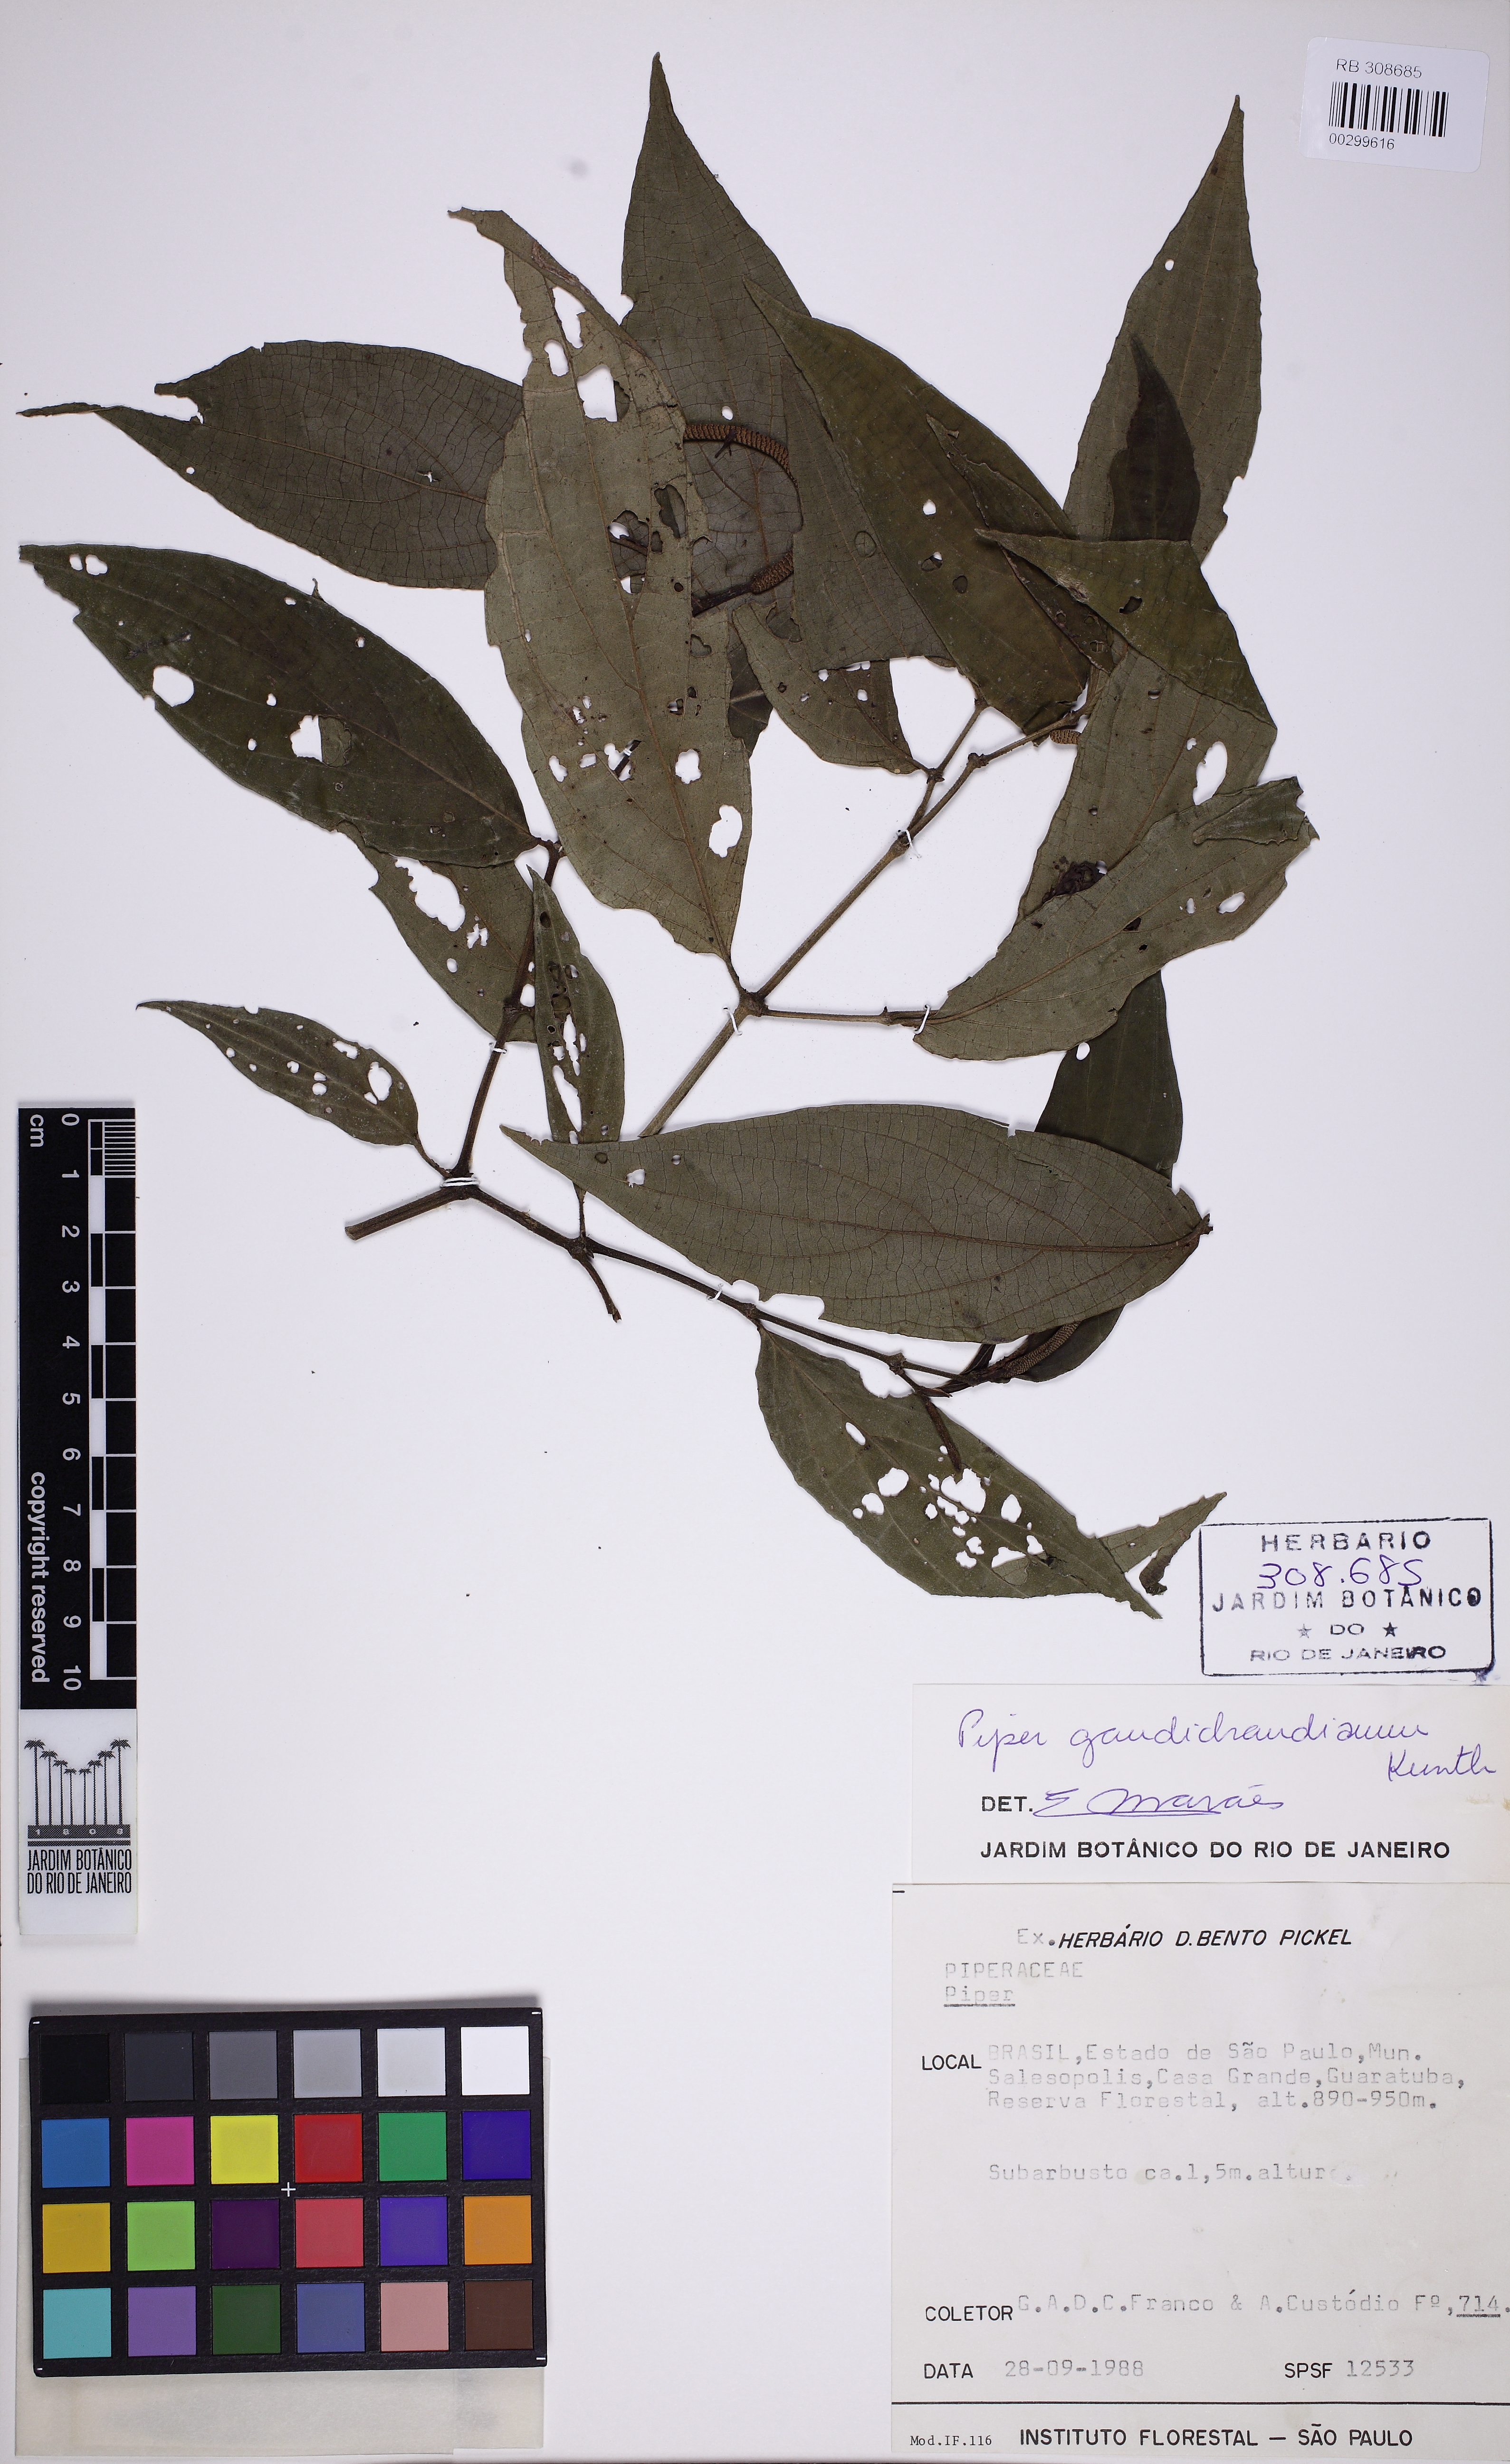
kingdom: Plantae
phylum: Tracheophyta
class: Magnoliopsida
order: Piperales
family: Piperaceae
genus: Piper
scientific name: Piper gaudichaudianum
